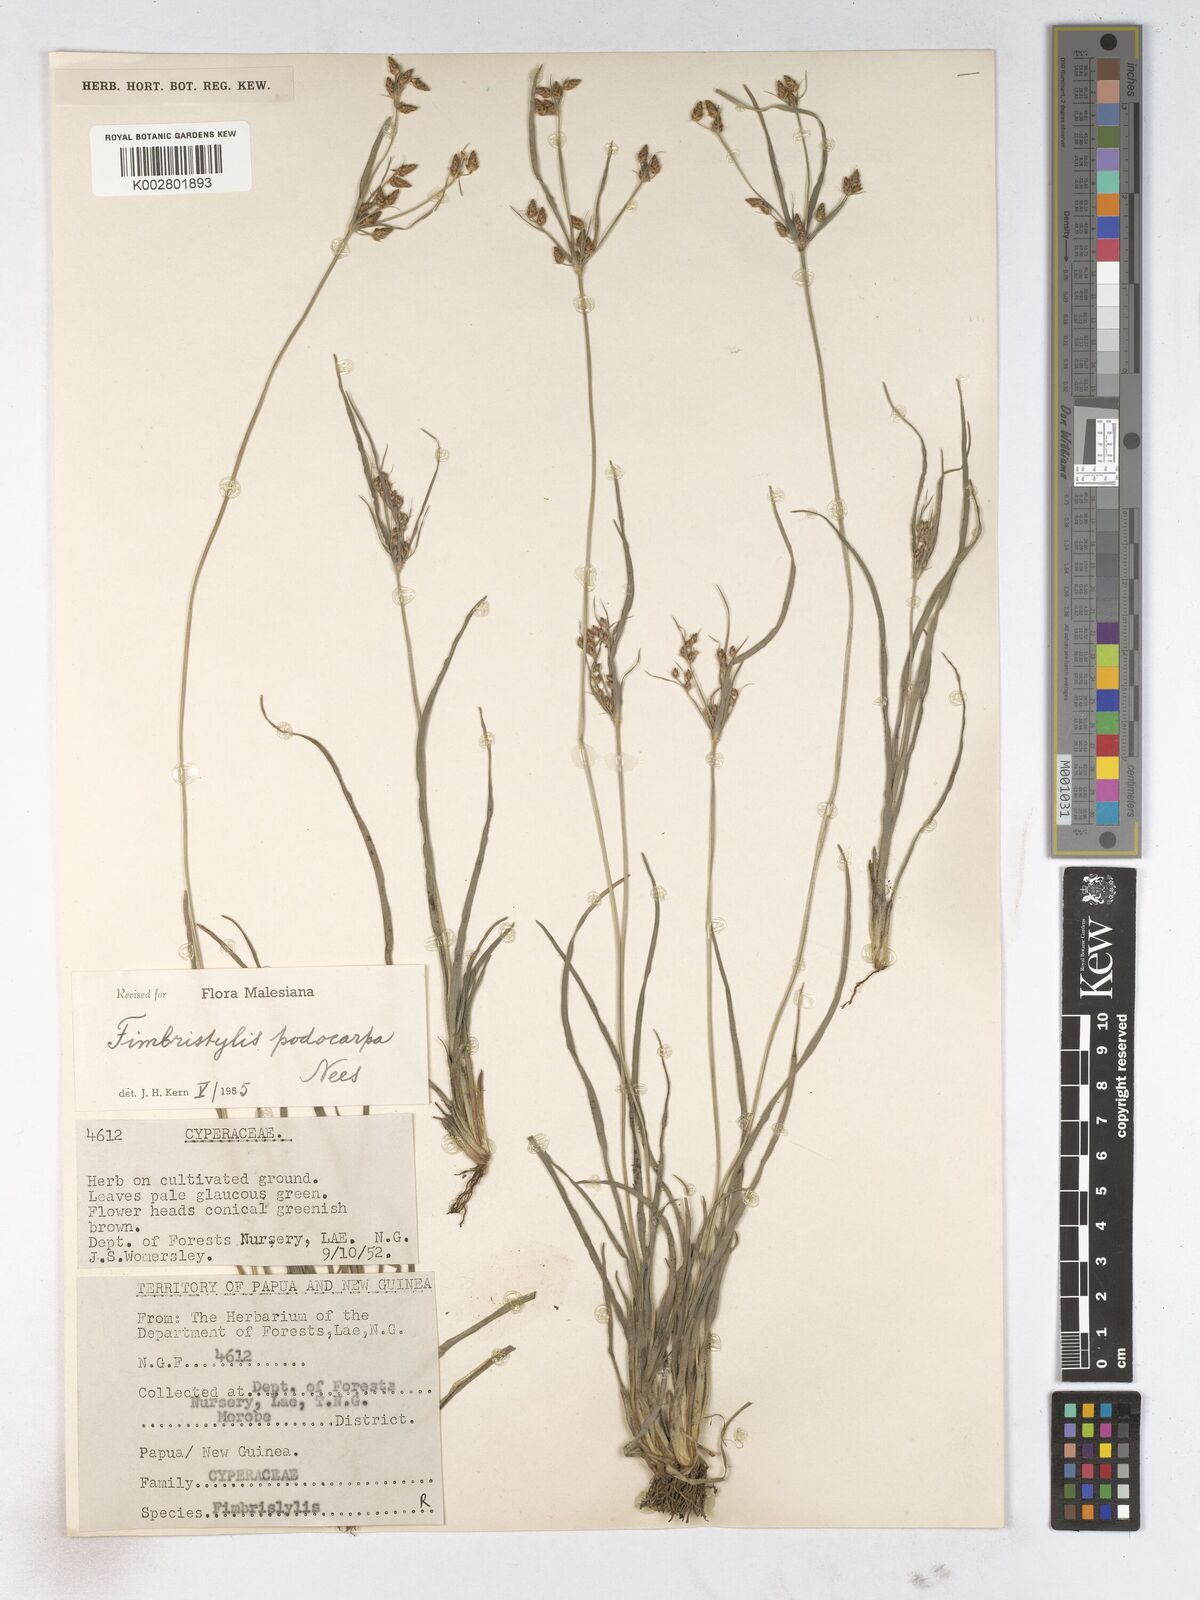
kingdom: Plantae
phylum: Tracheophyta
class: Liliopsida
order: Poales
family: Cyperaceae
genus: Fimbristylis
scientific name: Fimbristylis dichotoma
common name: Forked fimbry
